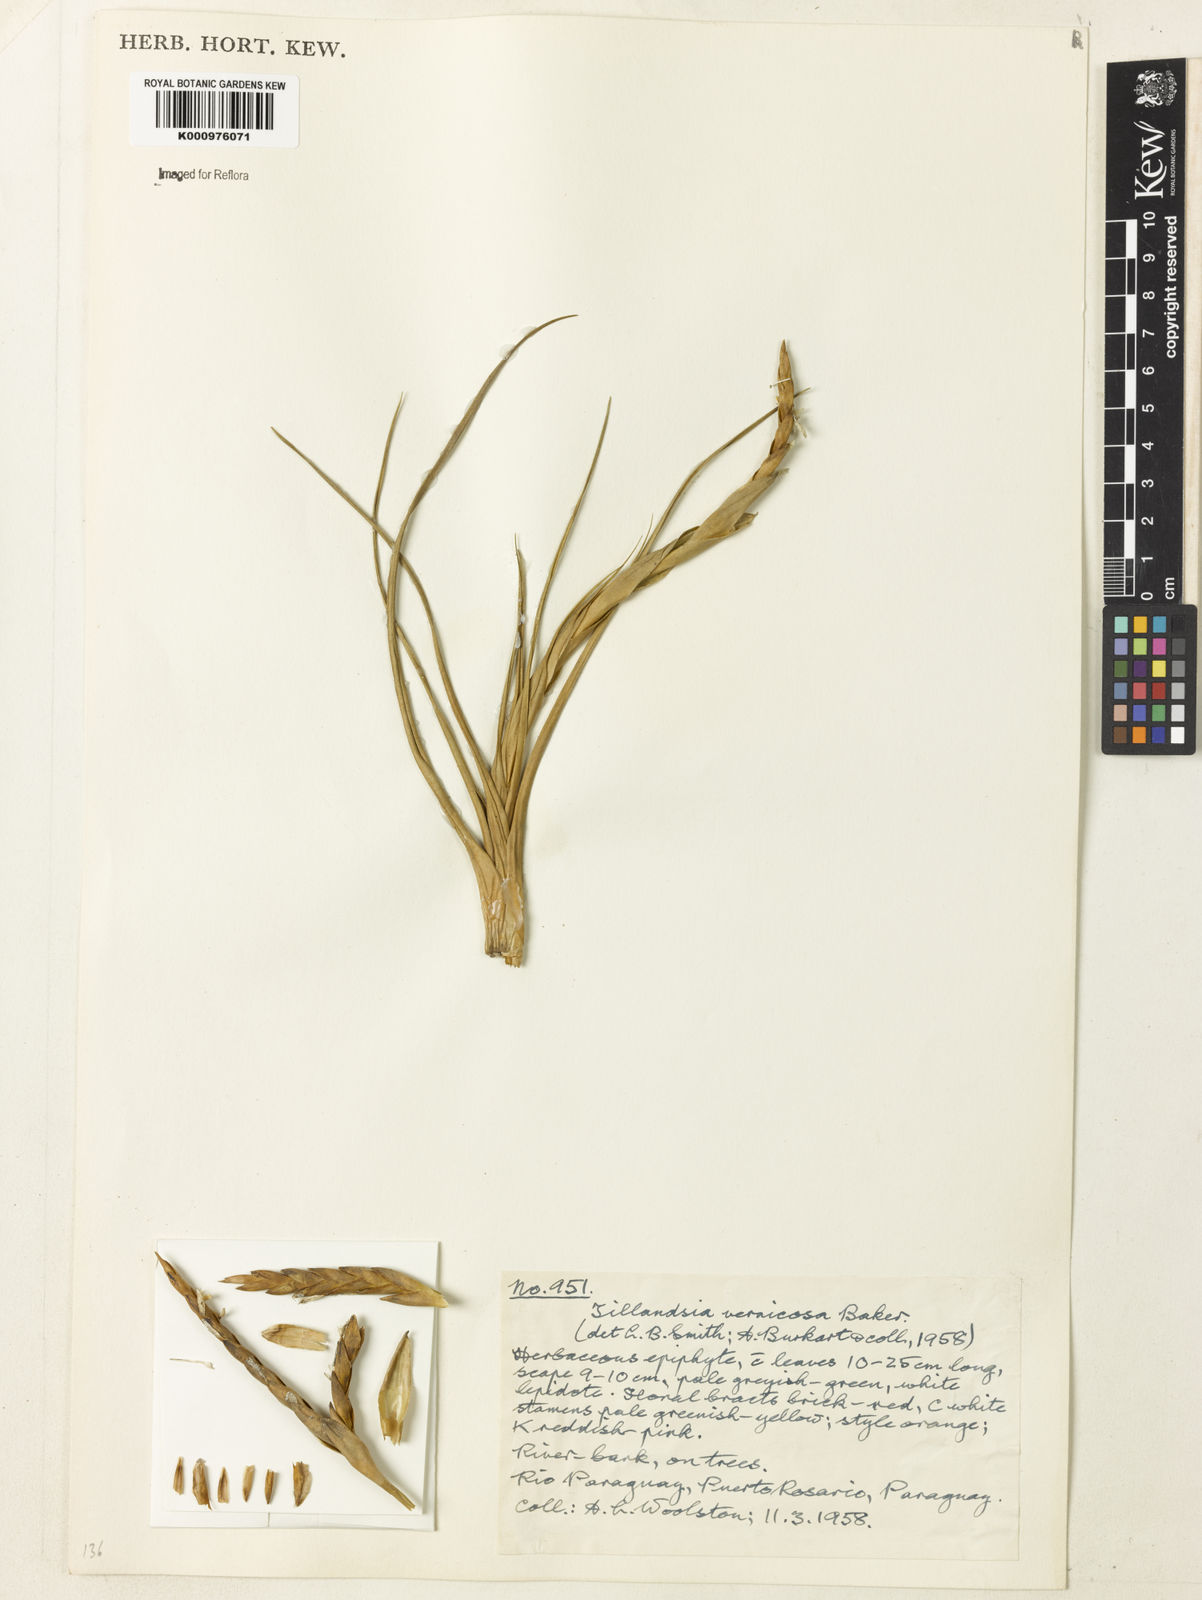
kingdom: Plantae
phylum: Tracheophyta
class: Liliopsida
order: Poales
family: Bromeliaceae
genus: Tillandsia
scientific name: Tillandsia vernicosa
